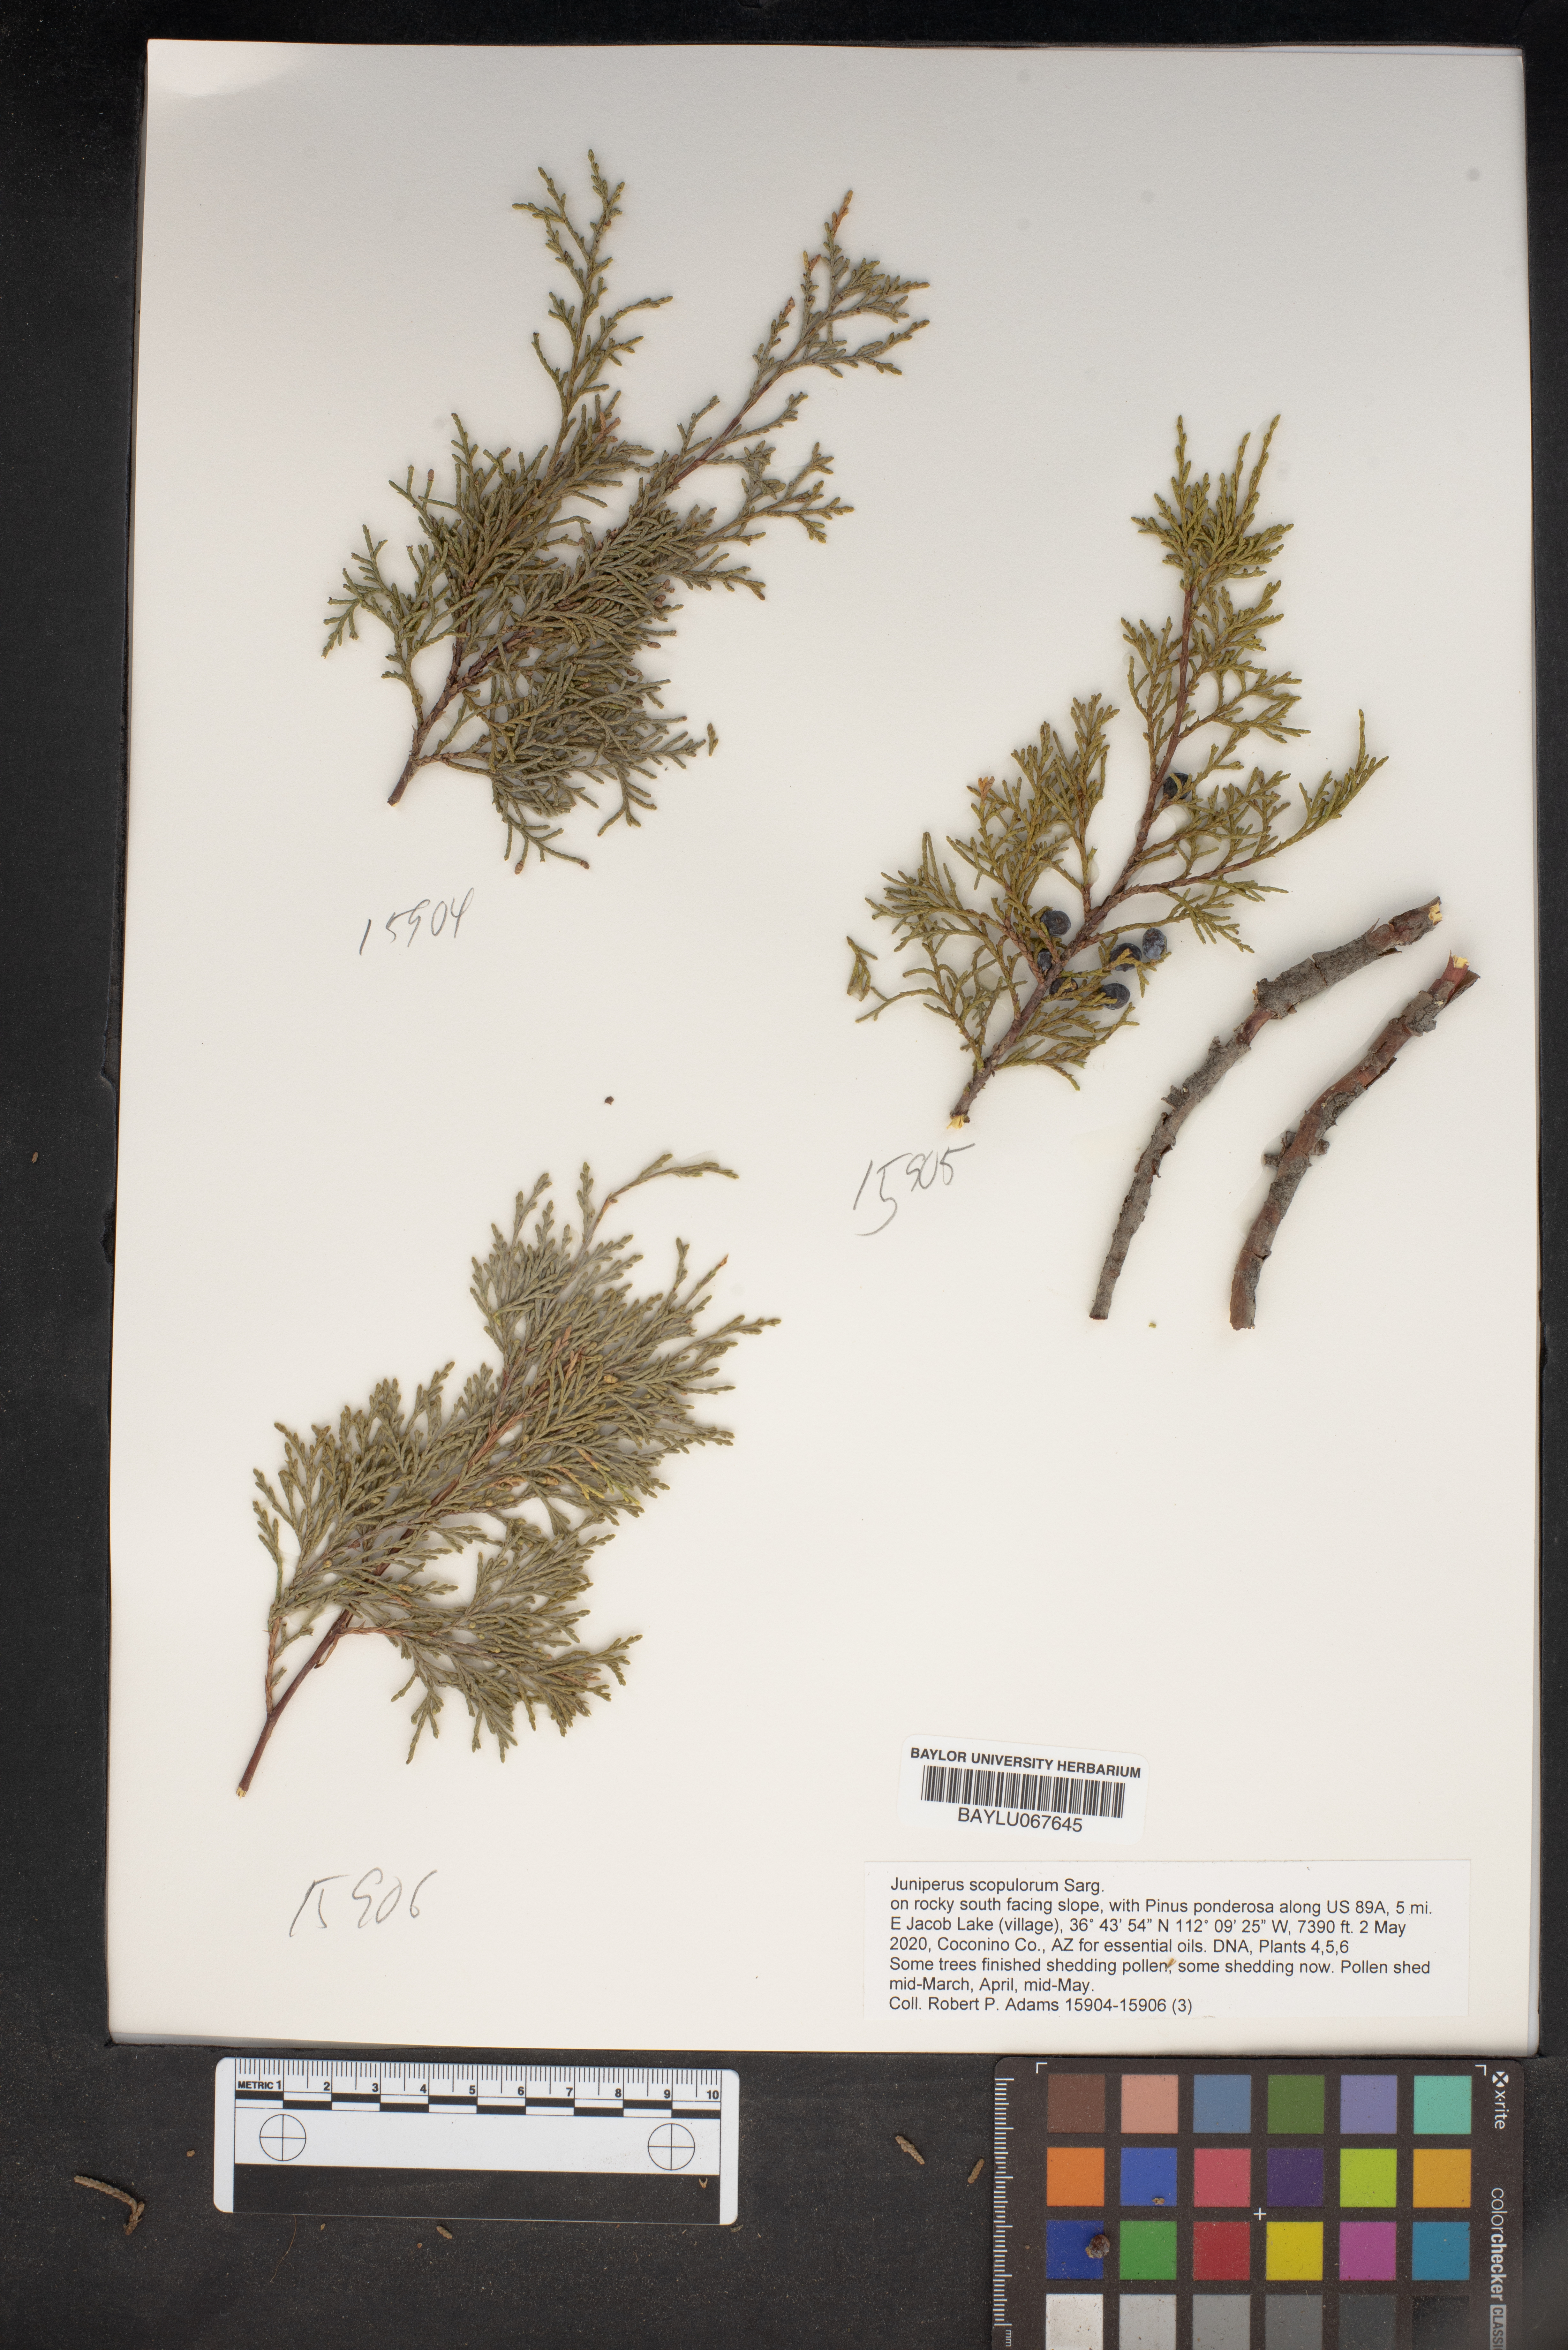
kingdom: Plantae
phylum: Tracheophyta
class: Pinopsida
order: Pinales
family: Cupressaceae
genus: Juniperus
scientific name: Juniperus scopulorum
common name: Rocky mountain juniper
